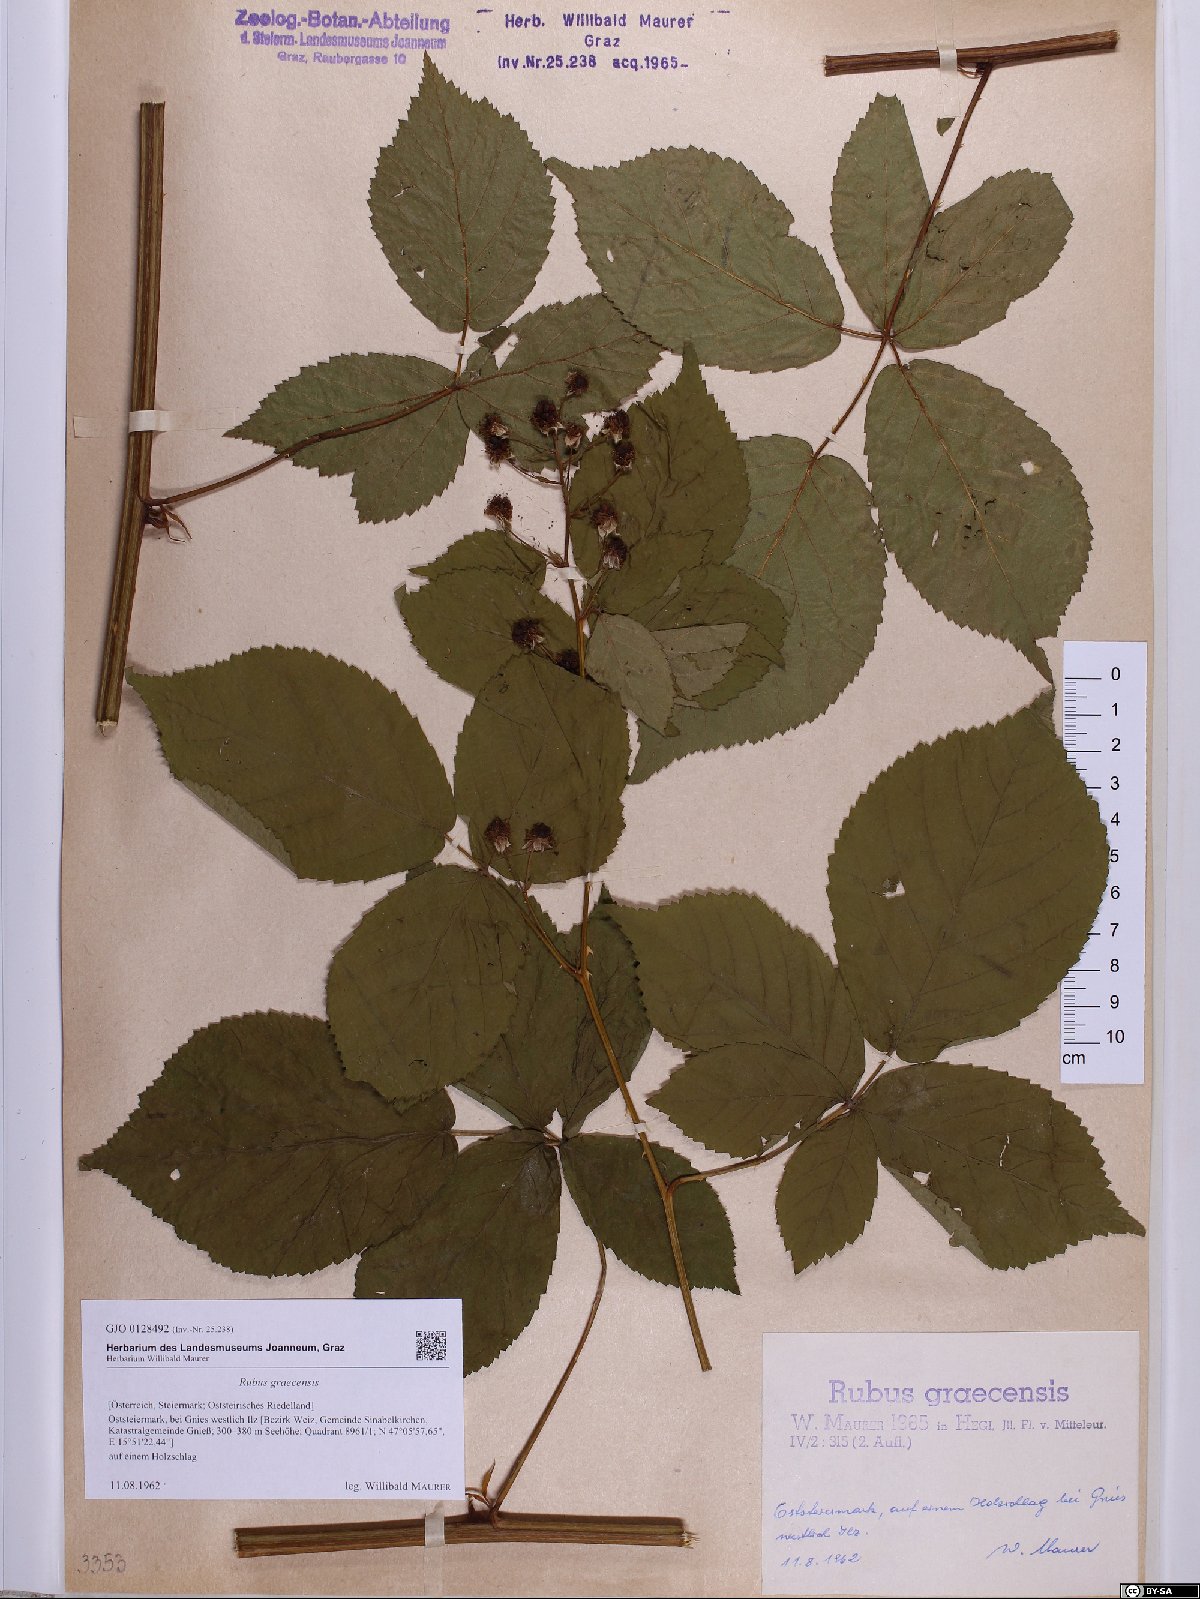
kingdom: Plantae
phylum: Tracheophyta
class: Magnoliopsida
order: Rosales
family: Rosaceae
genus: Rubus
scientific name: Rubus graecensis
